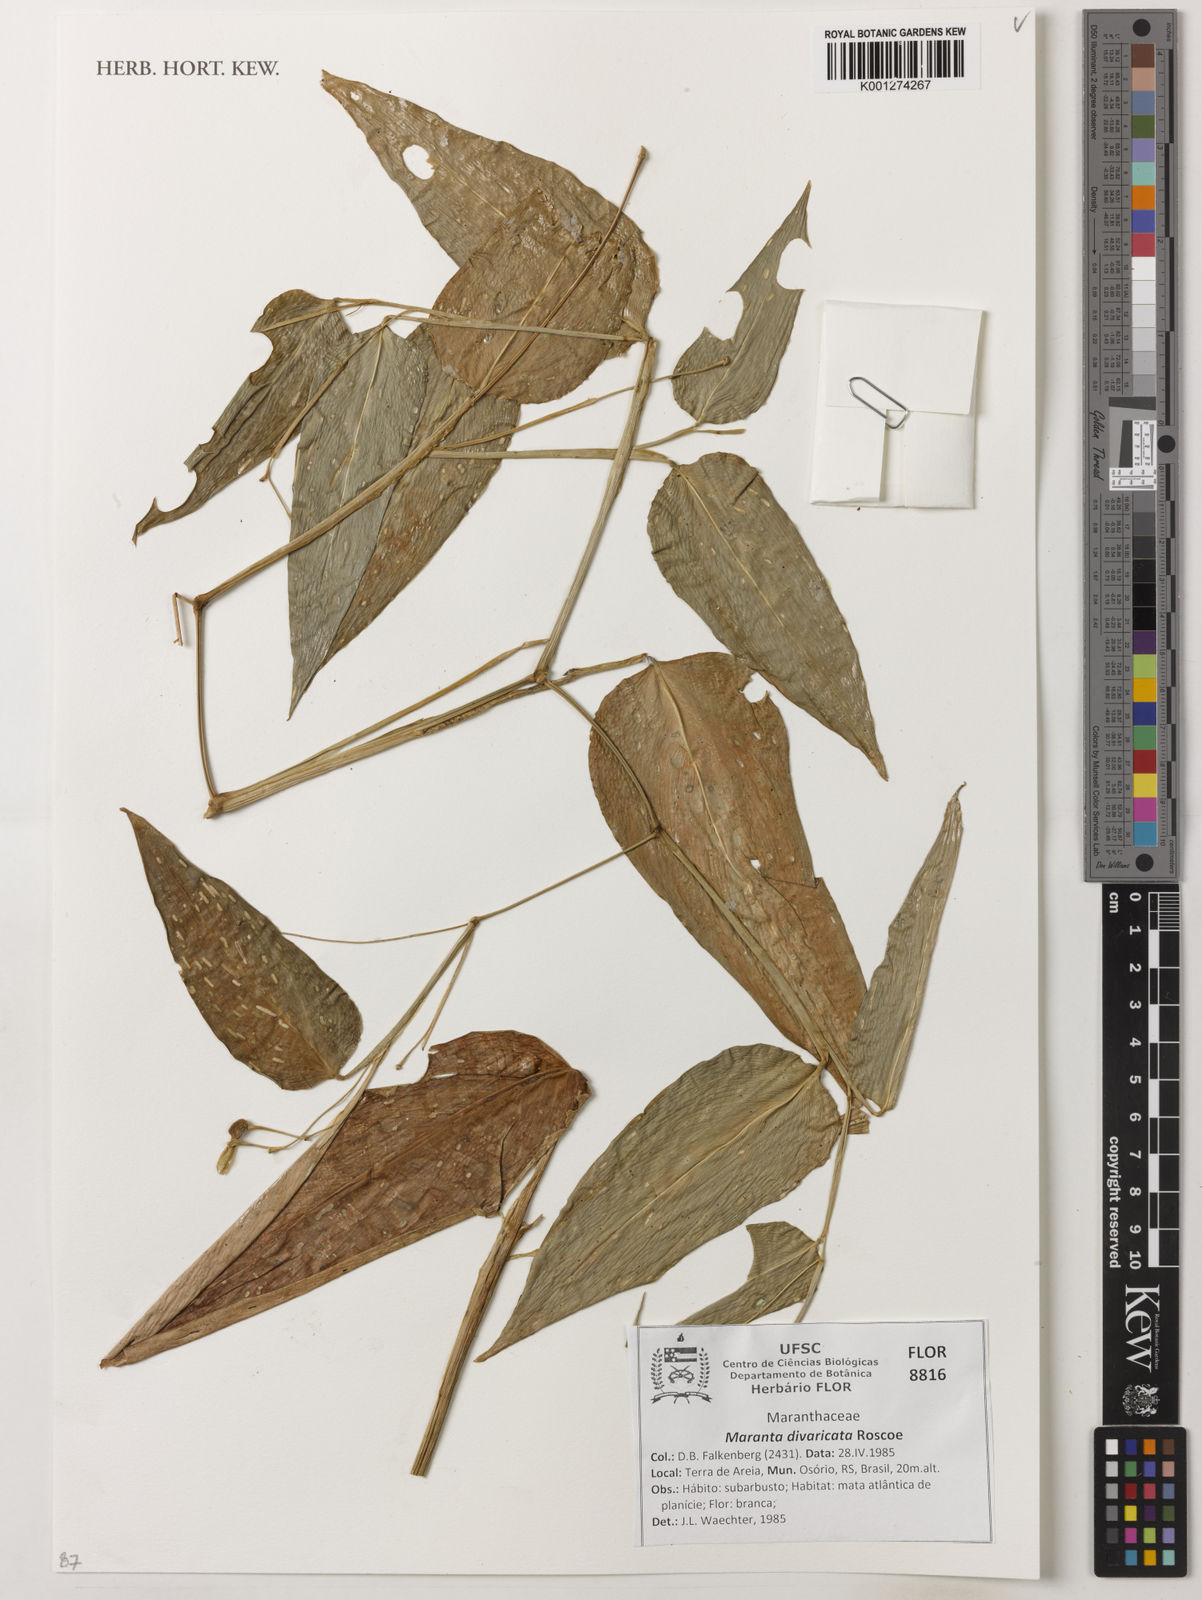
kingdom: Plantae
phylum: Tracheophyta
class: Liliopsida
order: Zingiberales
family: Marantaceae
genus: Maranta
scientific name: Maranta divaricata
